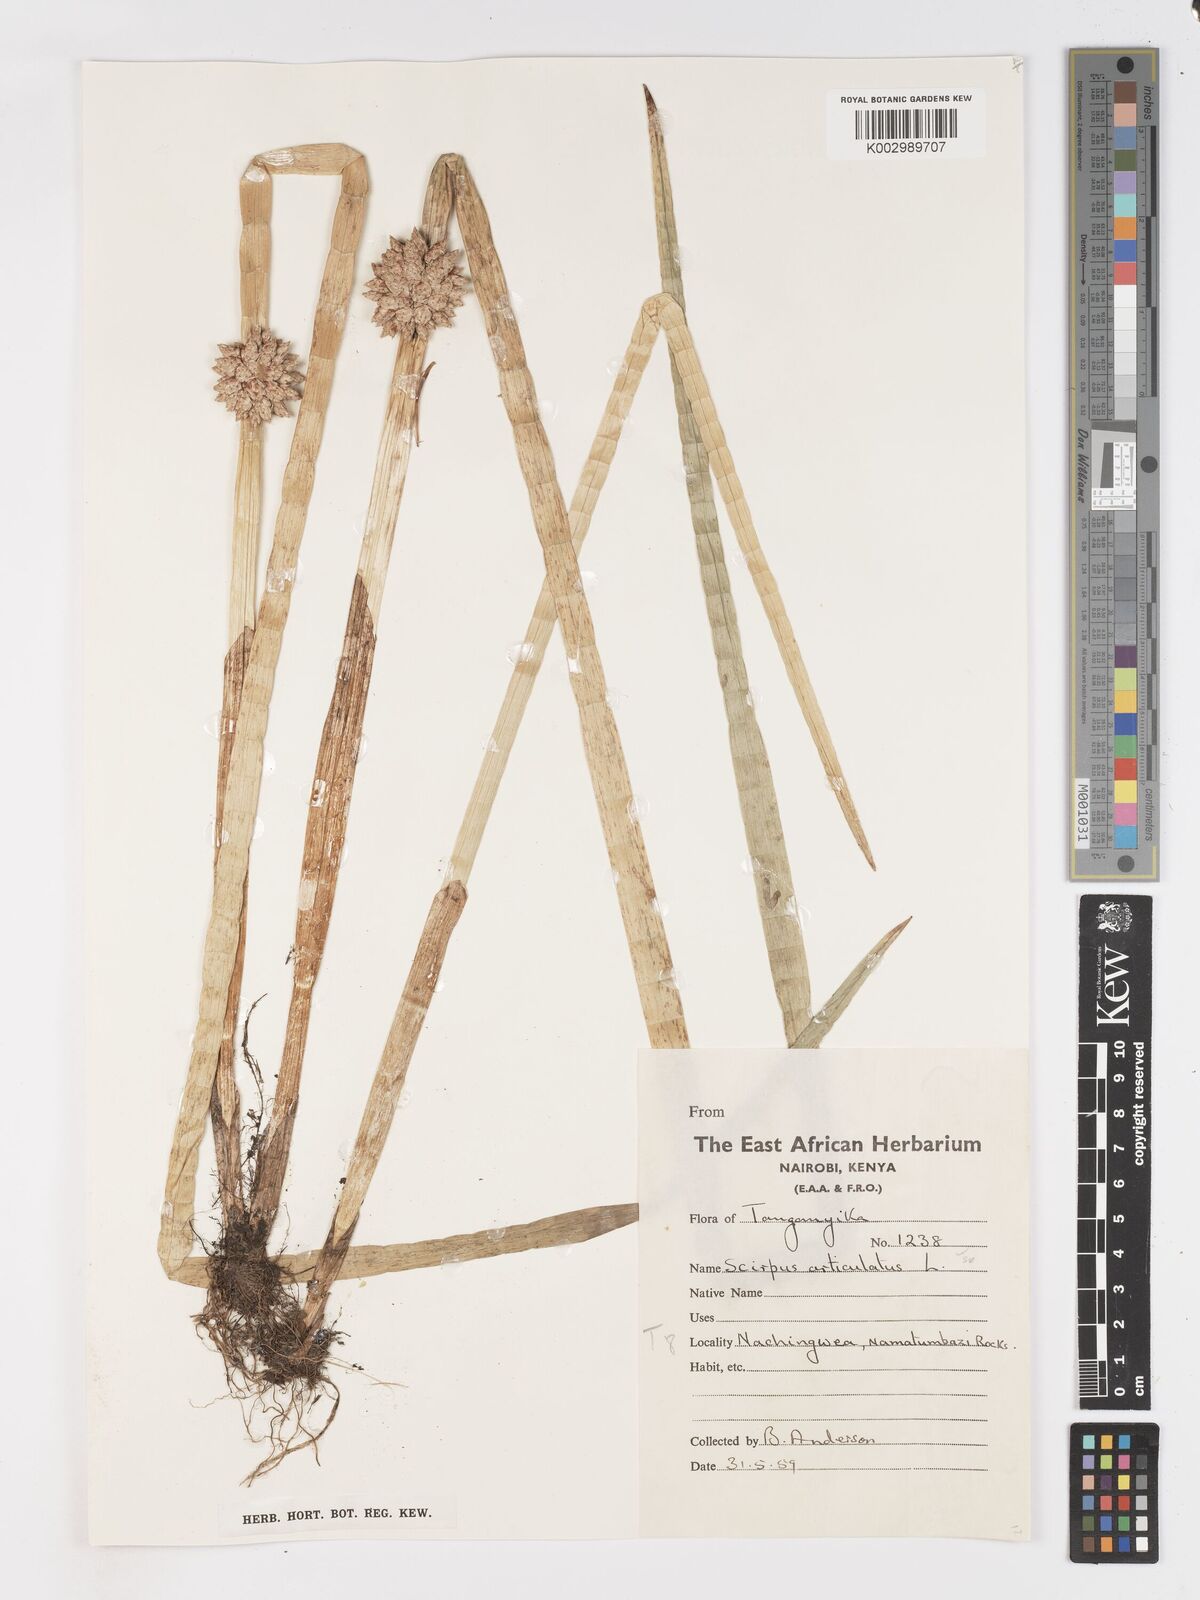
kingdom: Plantae
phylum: Tracheophyta
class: Liliopsida
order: Poales
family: Cyperaceae
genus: Schoenoplectiella
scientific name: Schoenoplectiella articulata
